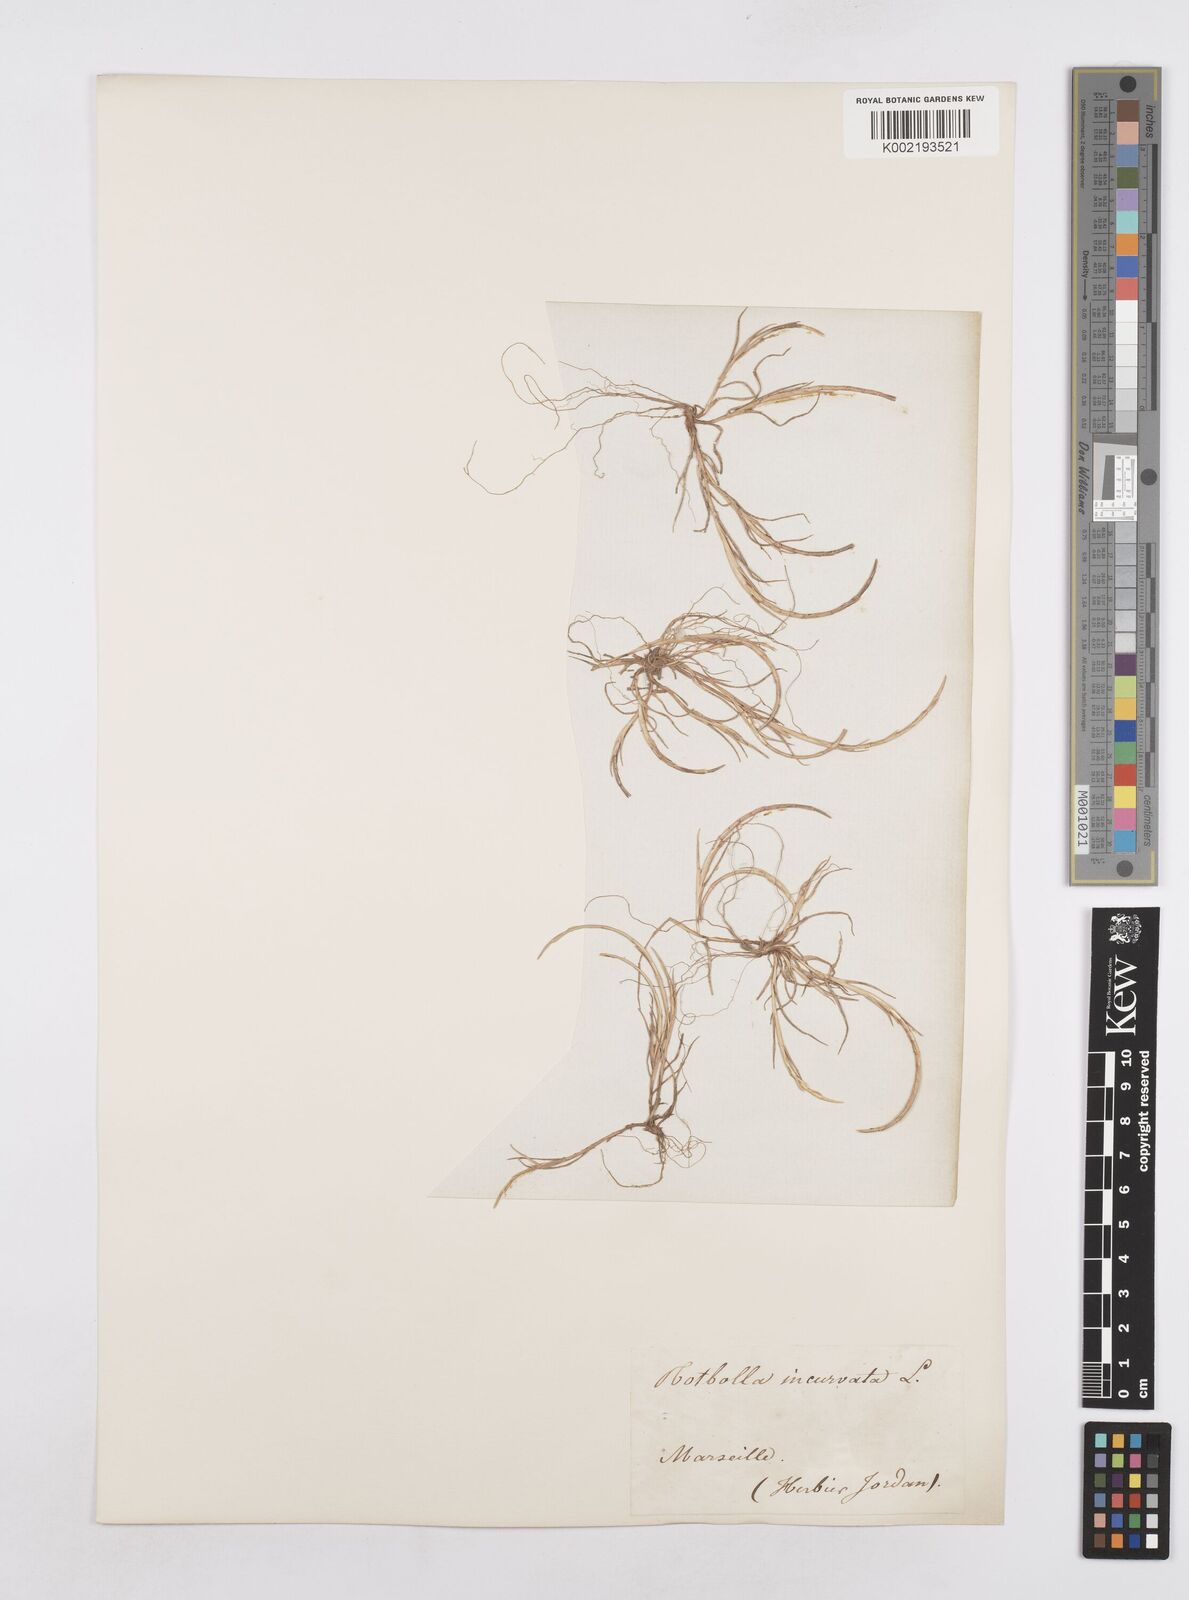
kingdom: Plantae
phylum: Tracheophyta
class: Liliopsida
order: Poales
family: Poaceae
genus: Parapholis
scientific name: Parapholis incurva
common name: Curved sicklegrass
